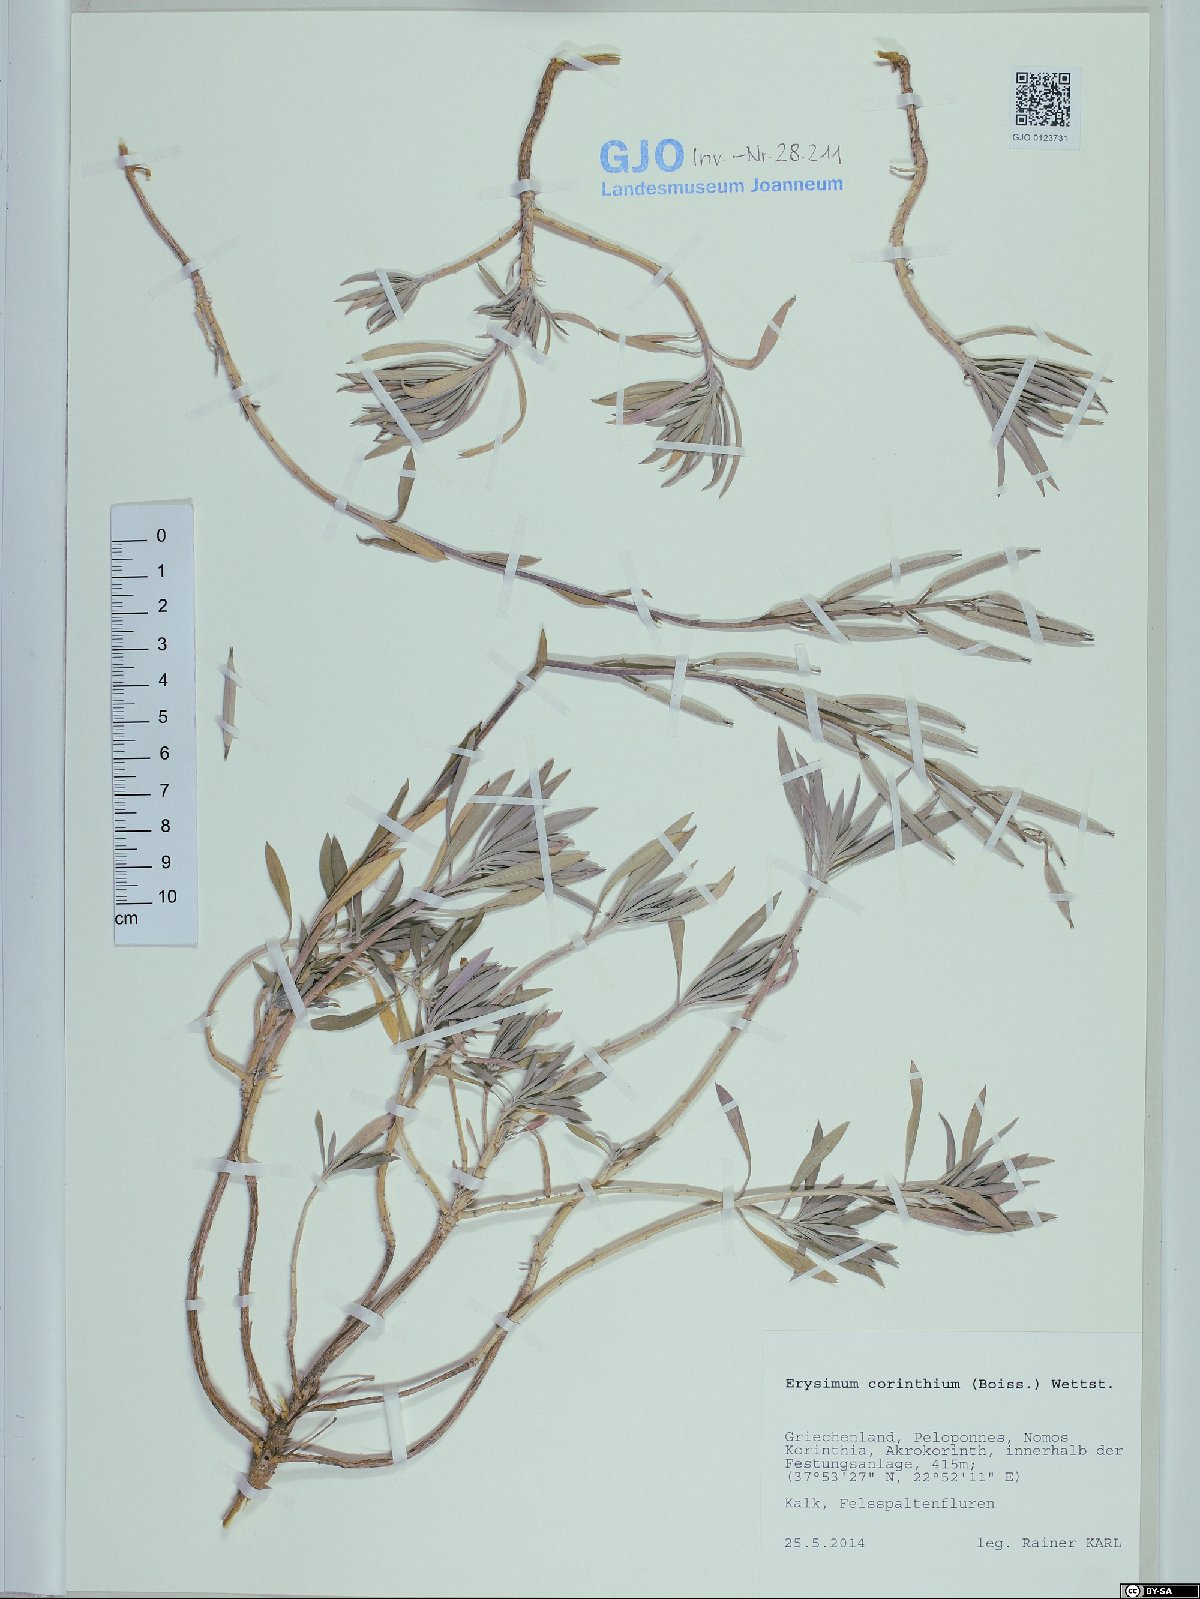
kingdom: Plantae
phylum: Tracheophyta
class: Magnoliopsida
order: Brassicales
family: Brassicaceae
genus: Erysimum
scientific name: Erysimum corinthium
